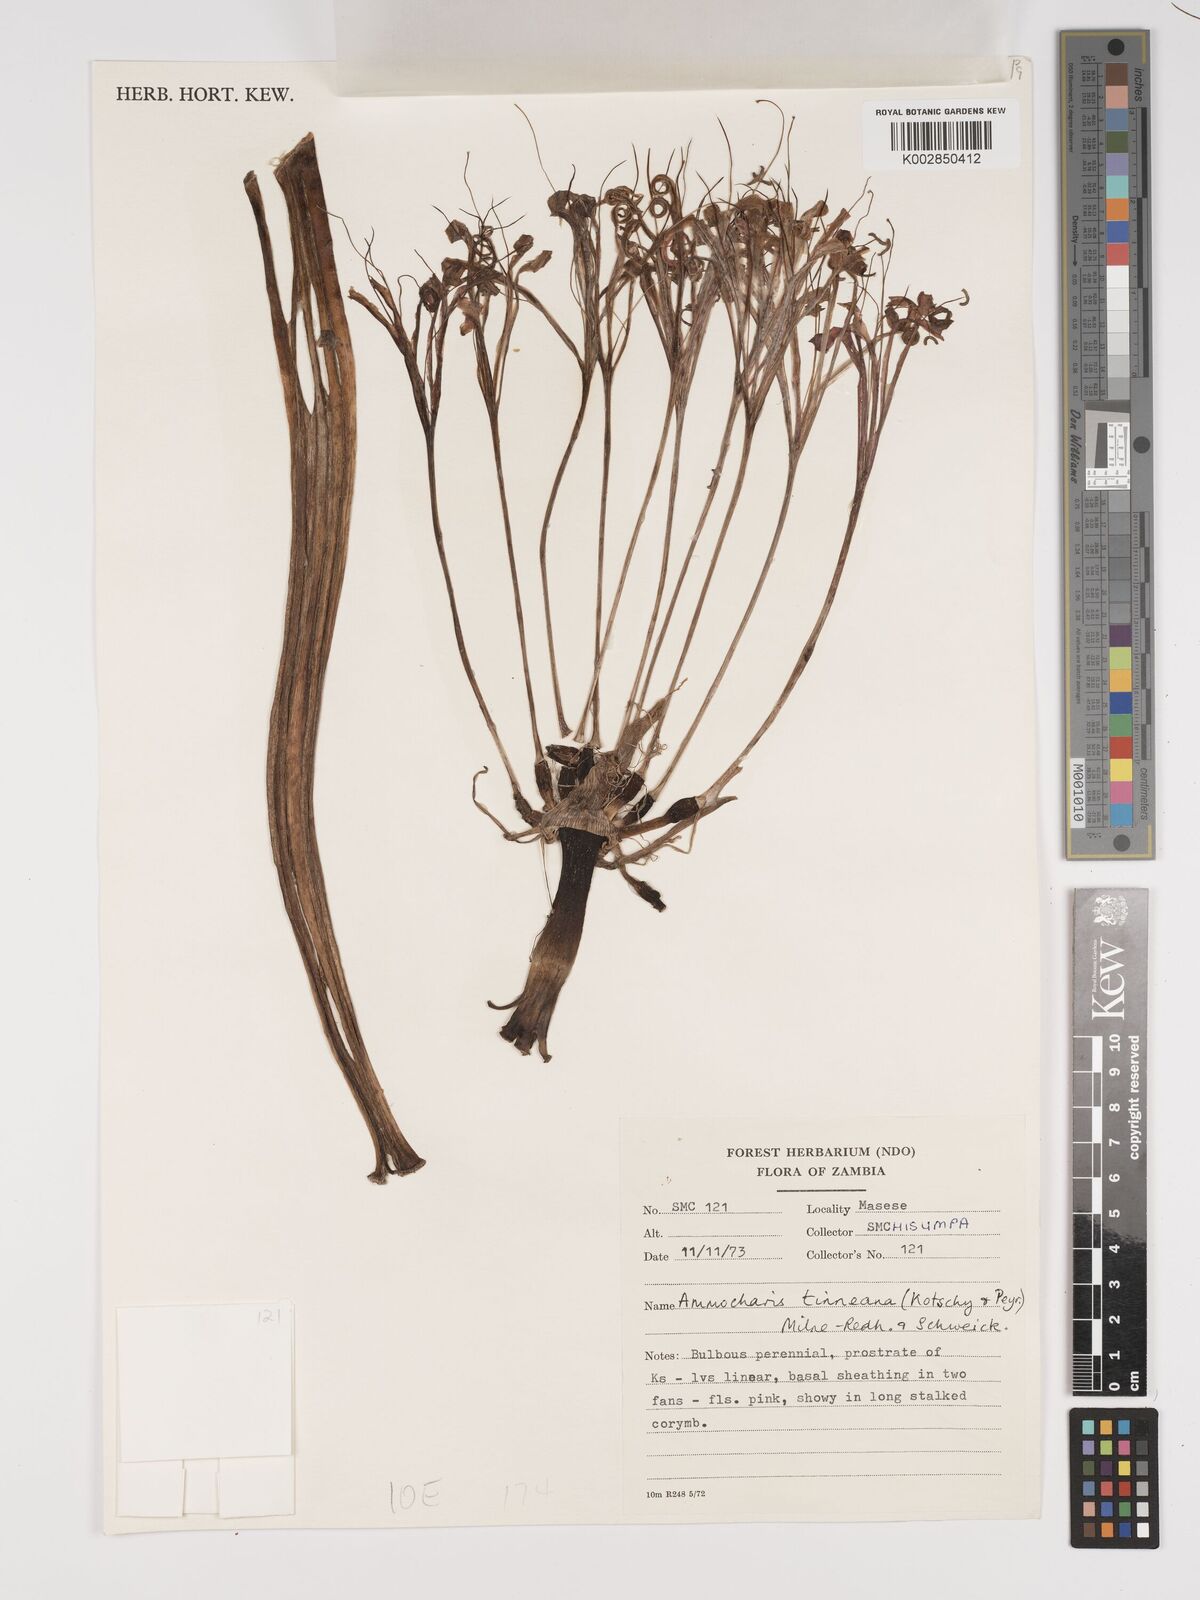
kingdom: Plantae
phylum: Tracheophyta
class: Liliopsida
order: Asparagales
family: Amaryllidaceae
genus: Ammocharis
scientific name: Ammocharis tinneana
